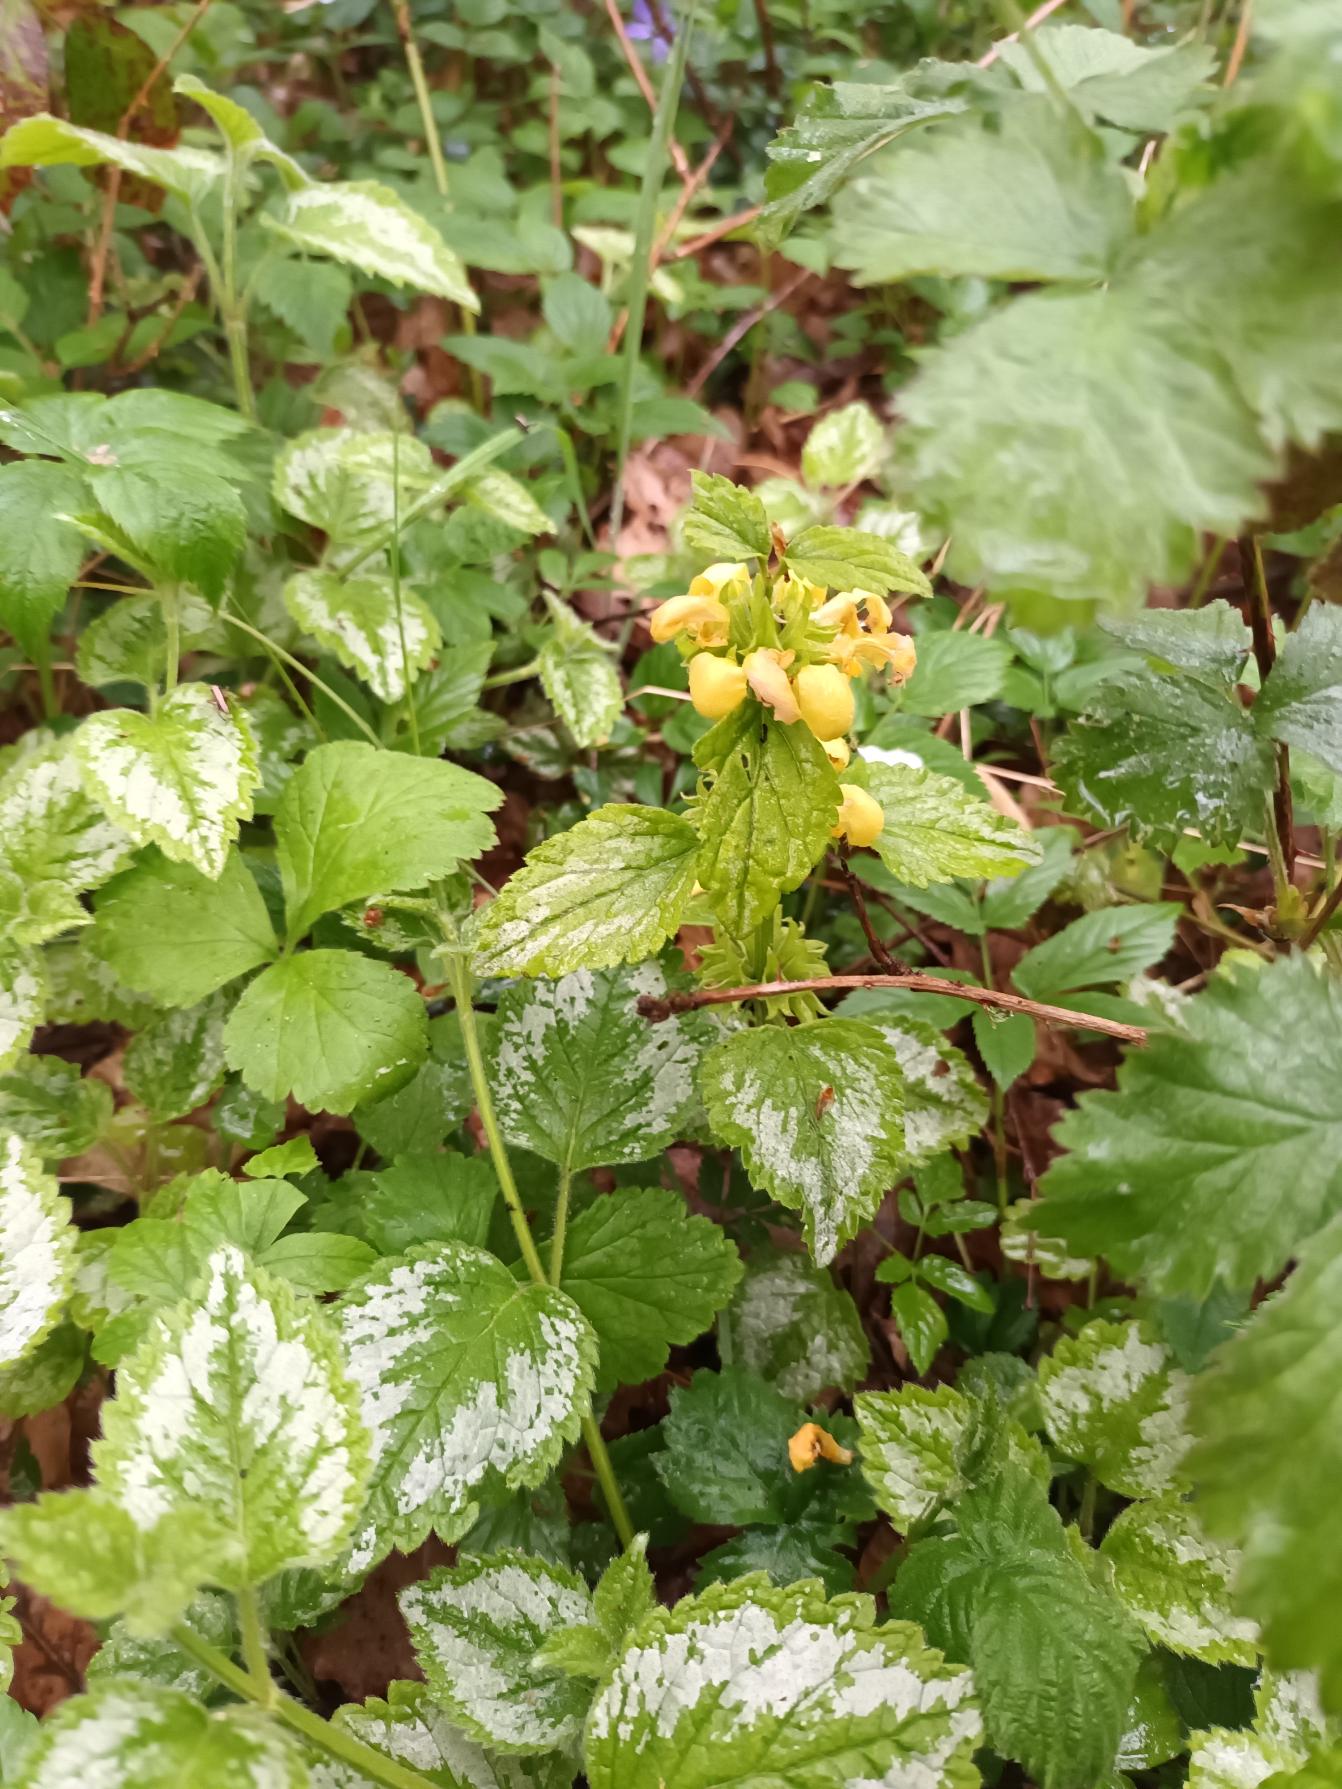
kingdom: Plantae
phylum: Tracheophyta
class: Magnoliopsida
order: Lamiales
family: Lamiaceae
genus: Lamium
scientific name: Lamium galeobdolon
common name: Have-guldnælde
